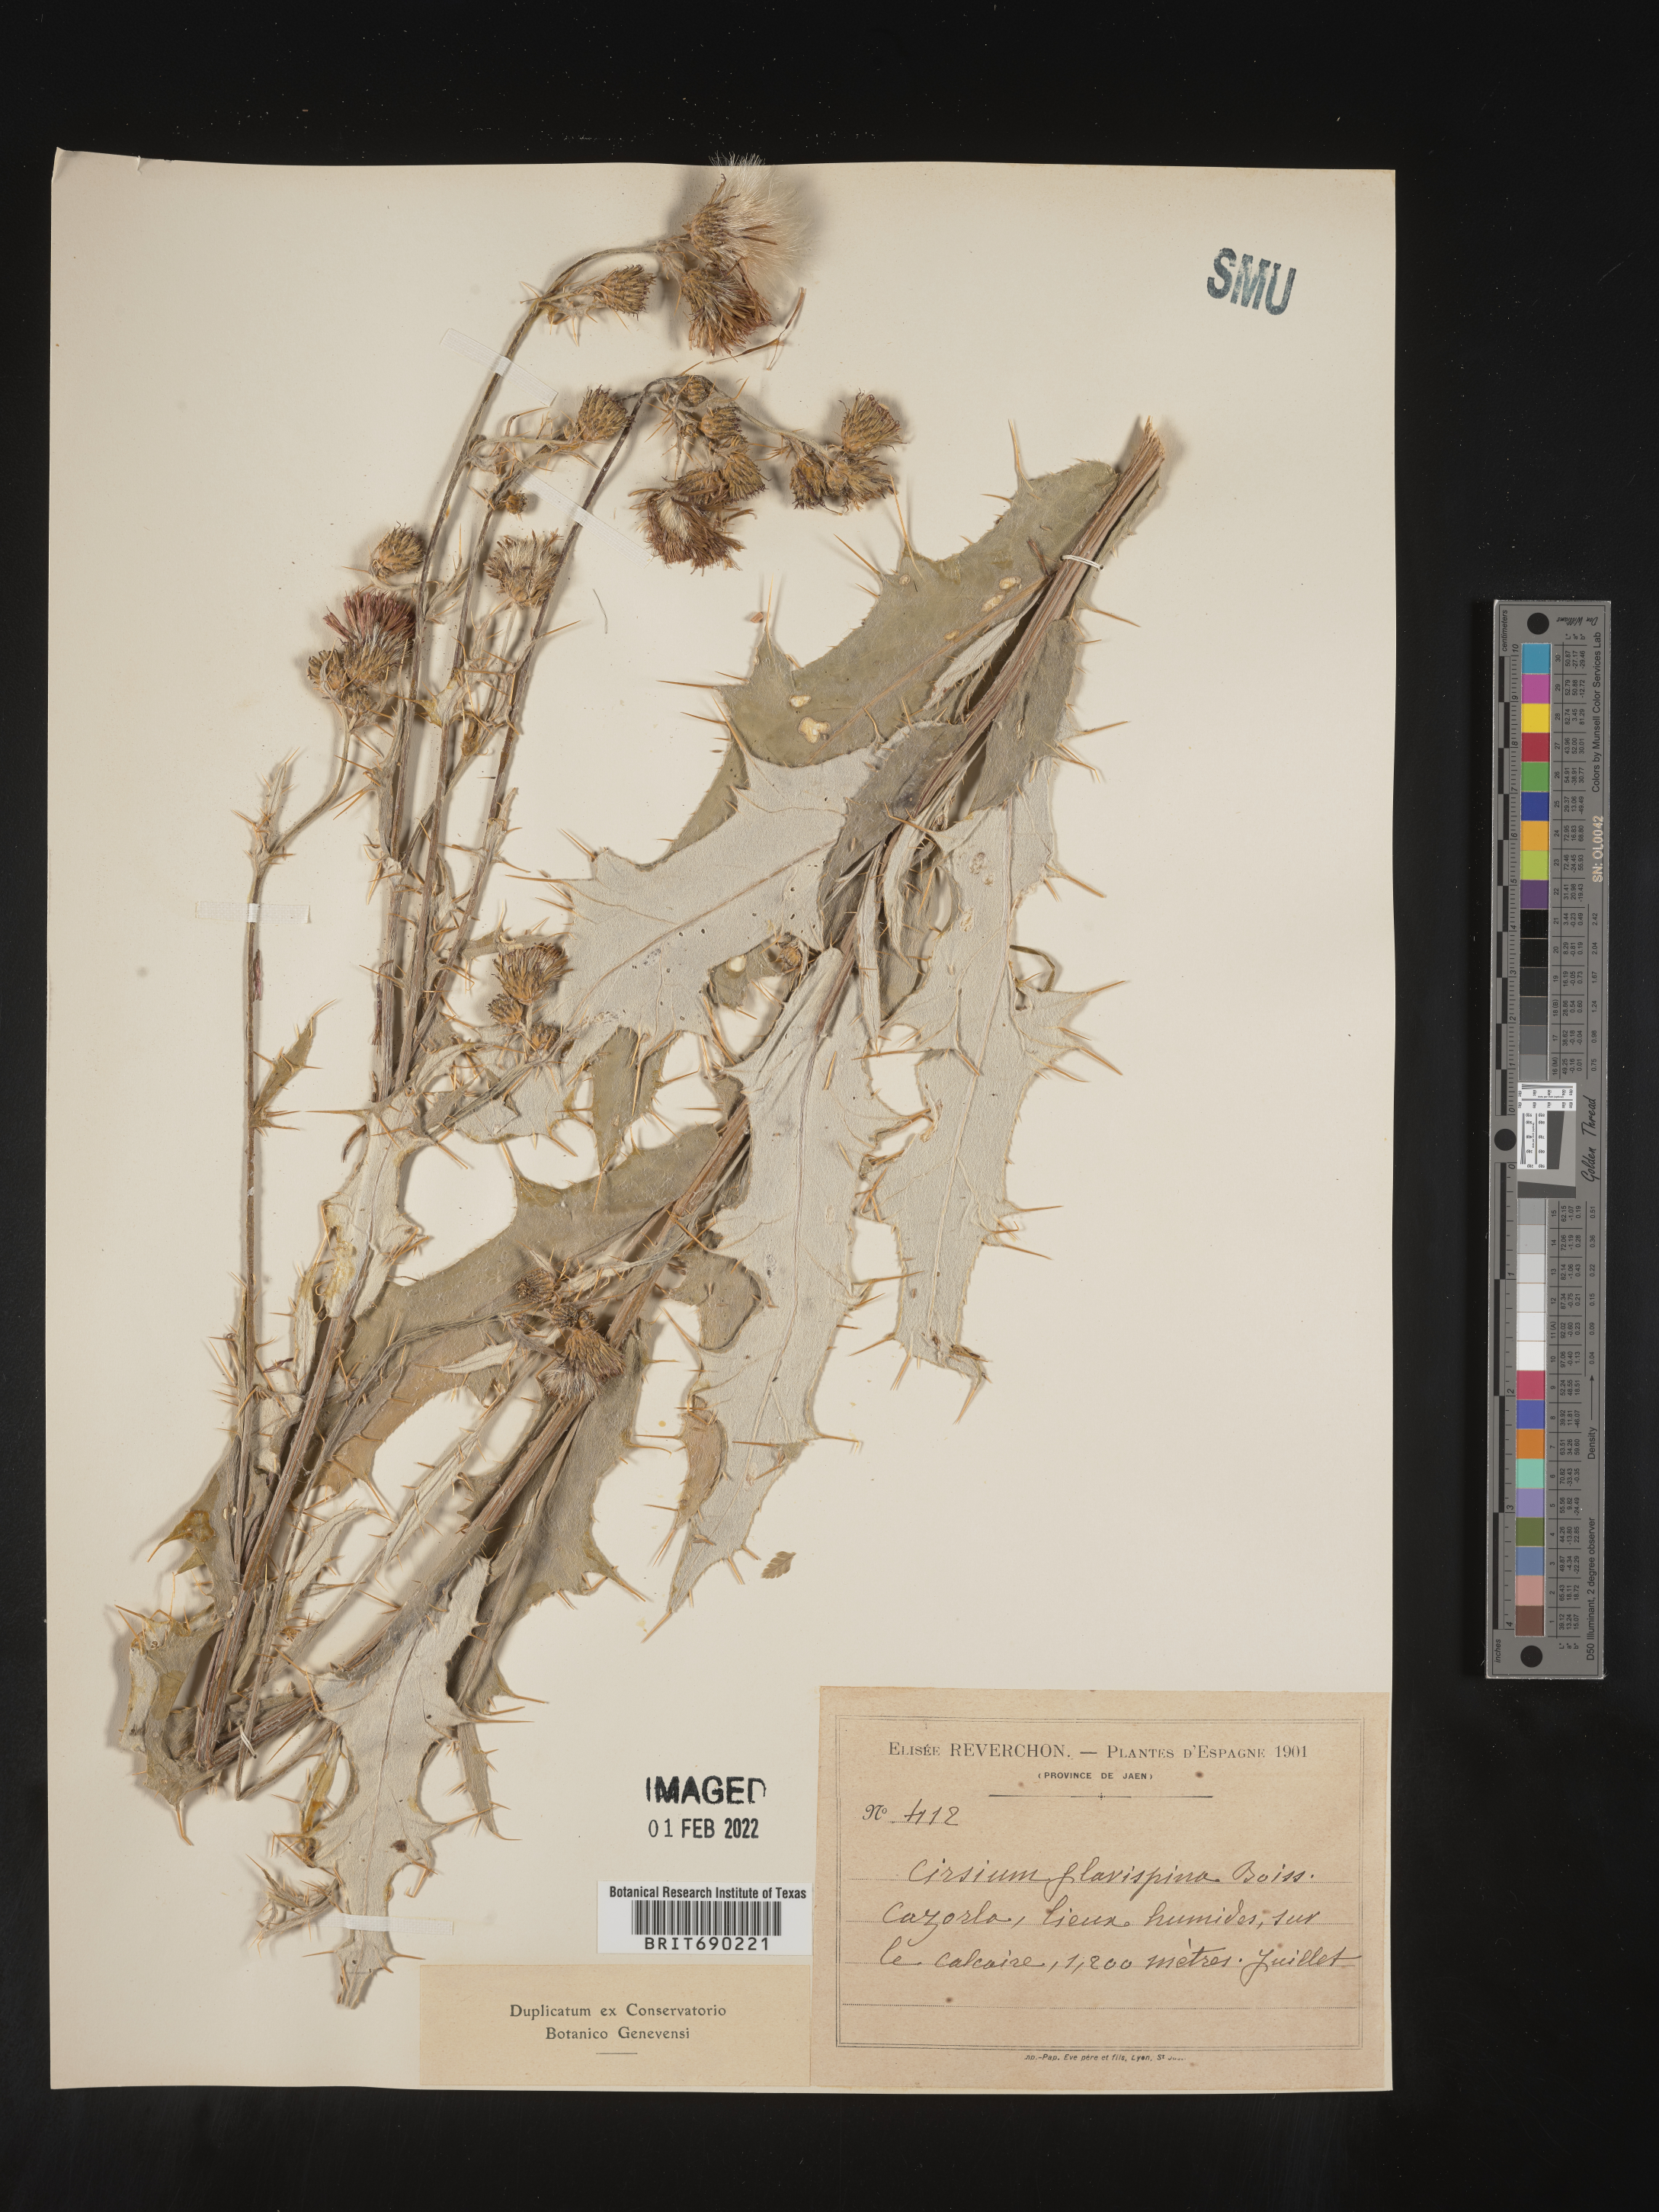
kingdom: Plantae
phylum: Tracheophyta
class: Magnoliopsida
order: Asterales
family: Asteraceae
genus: Cirsium
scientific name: Cirsium
